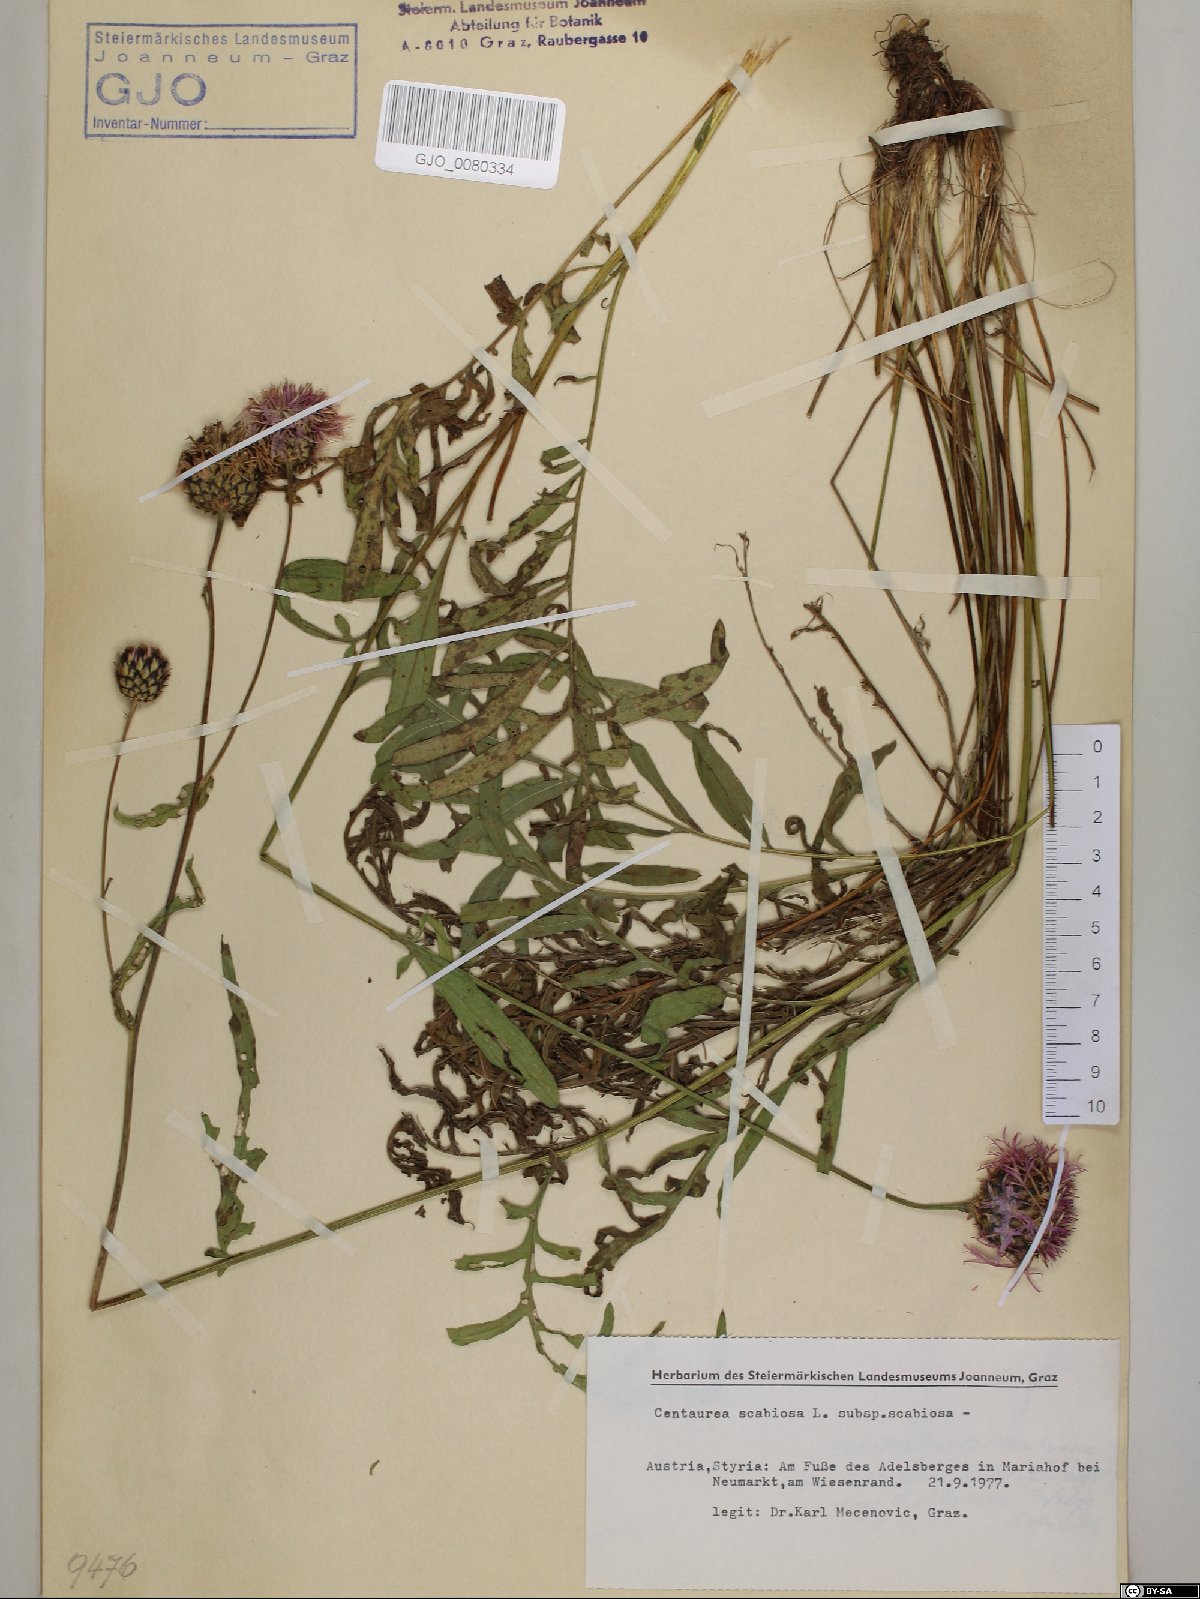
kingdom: Plantae
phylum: Tracheophyta
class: Magnoliopsida
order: Asterales
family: Asteraceae
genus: Centaurea
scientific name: Centaurea scabiosa
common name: Greater knapweed
